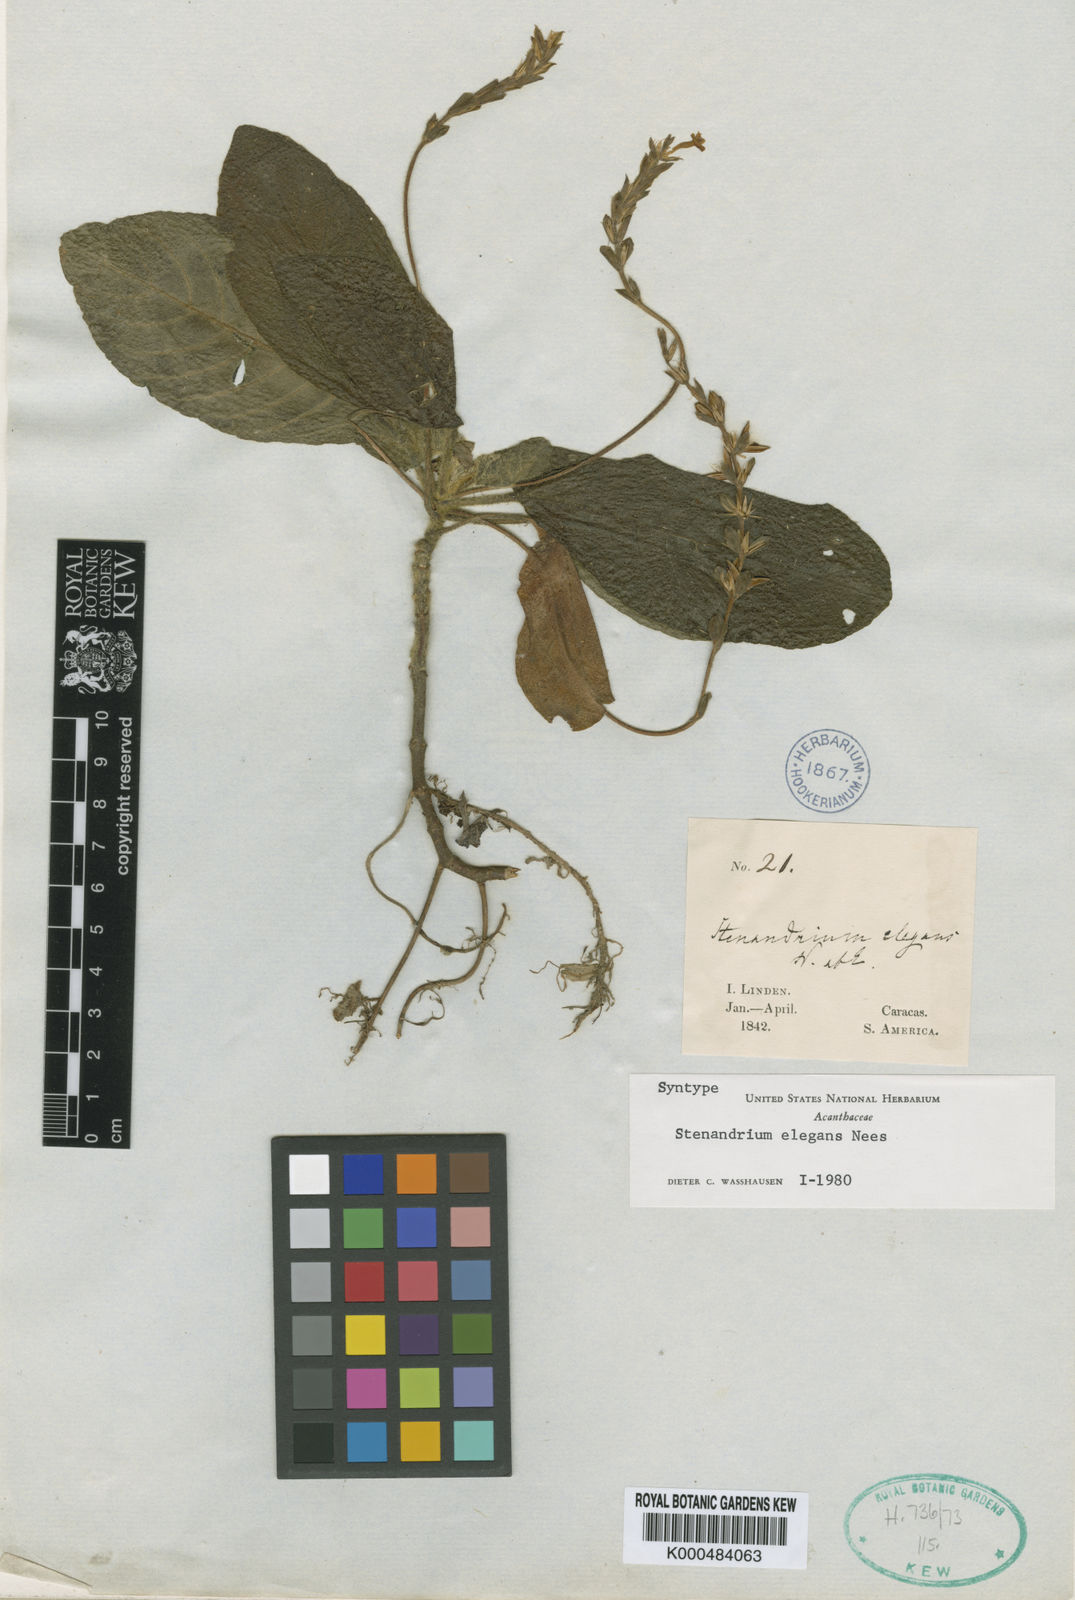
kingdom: Plantae
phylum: Tracheophyta
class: Magnoliopsida
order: Lamiales
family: Acanthaceae
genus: Stenandrium
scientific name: Stenandrium elegans
